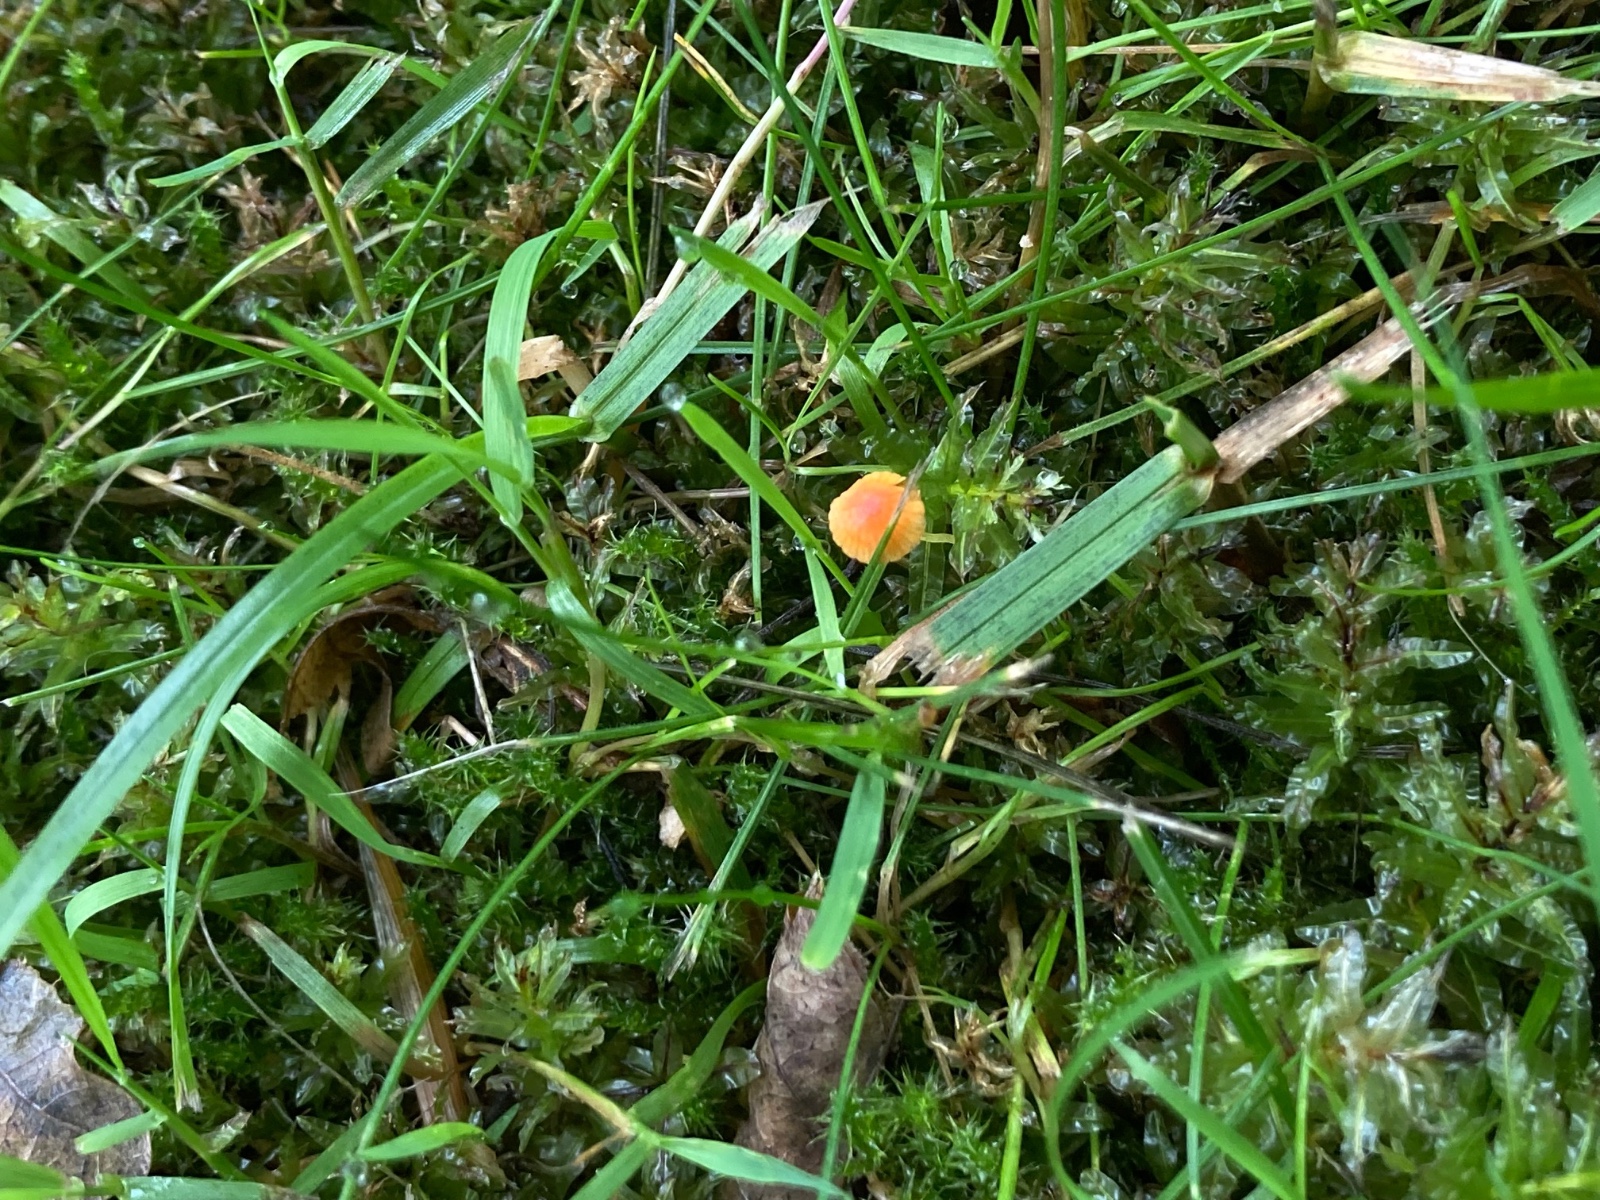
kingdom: Fungi
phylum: Basidiomycota
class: Agaricomycetes
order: Agaricales
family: Mycenaceae
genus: Mycena
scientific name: Mycena acicula
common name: orange huesvamp
